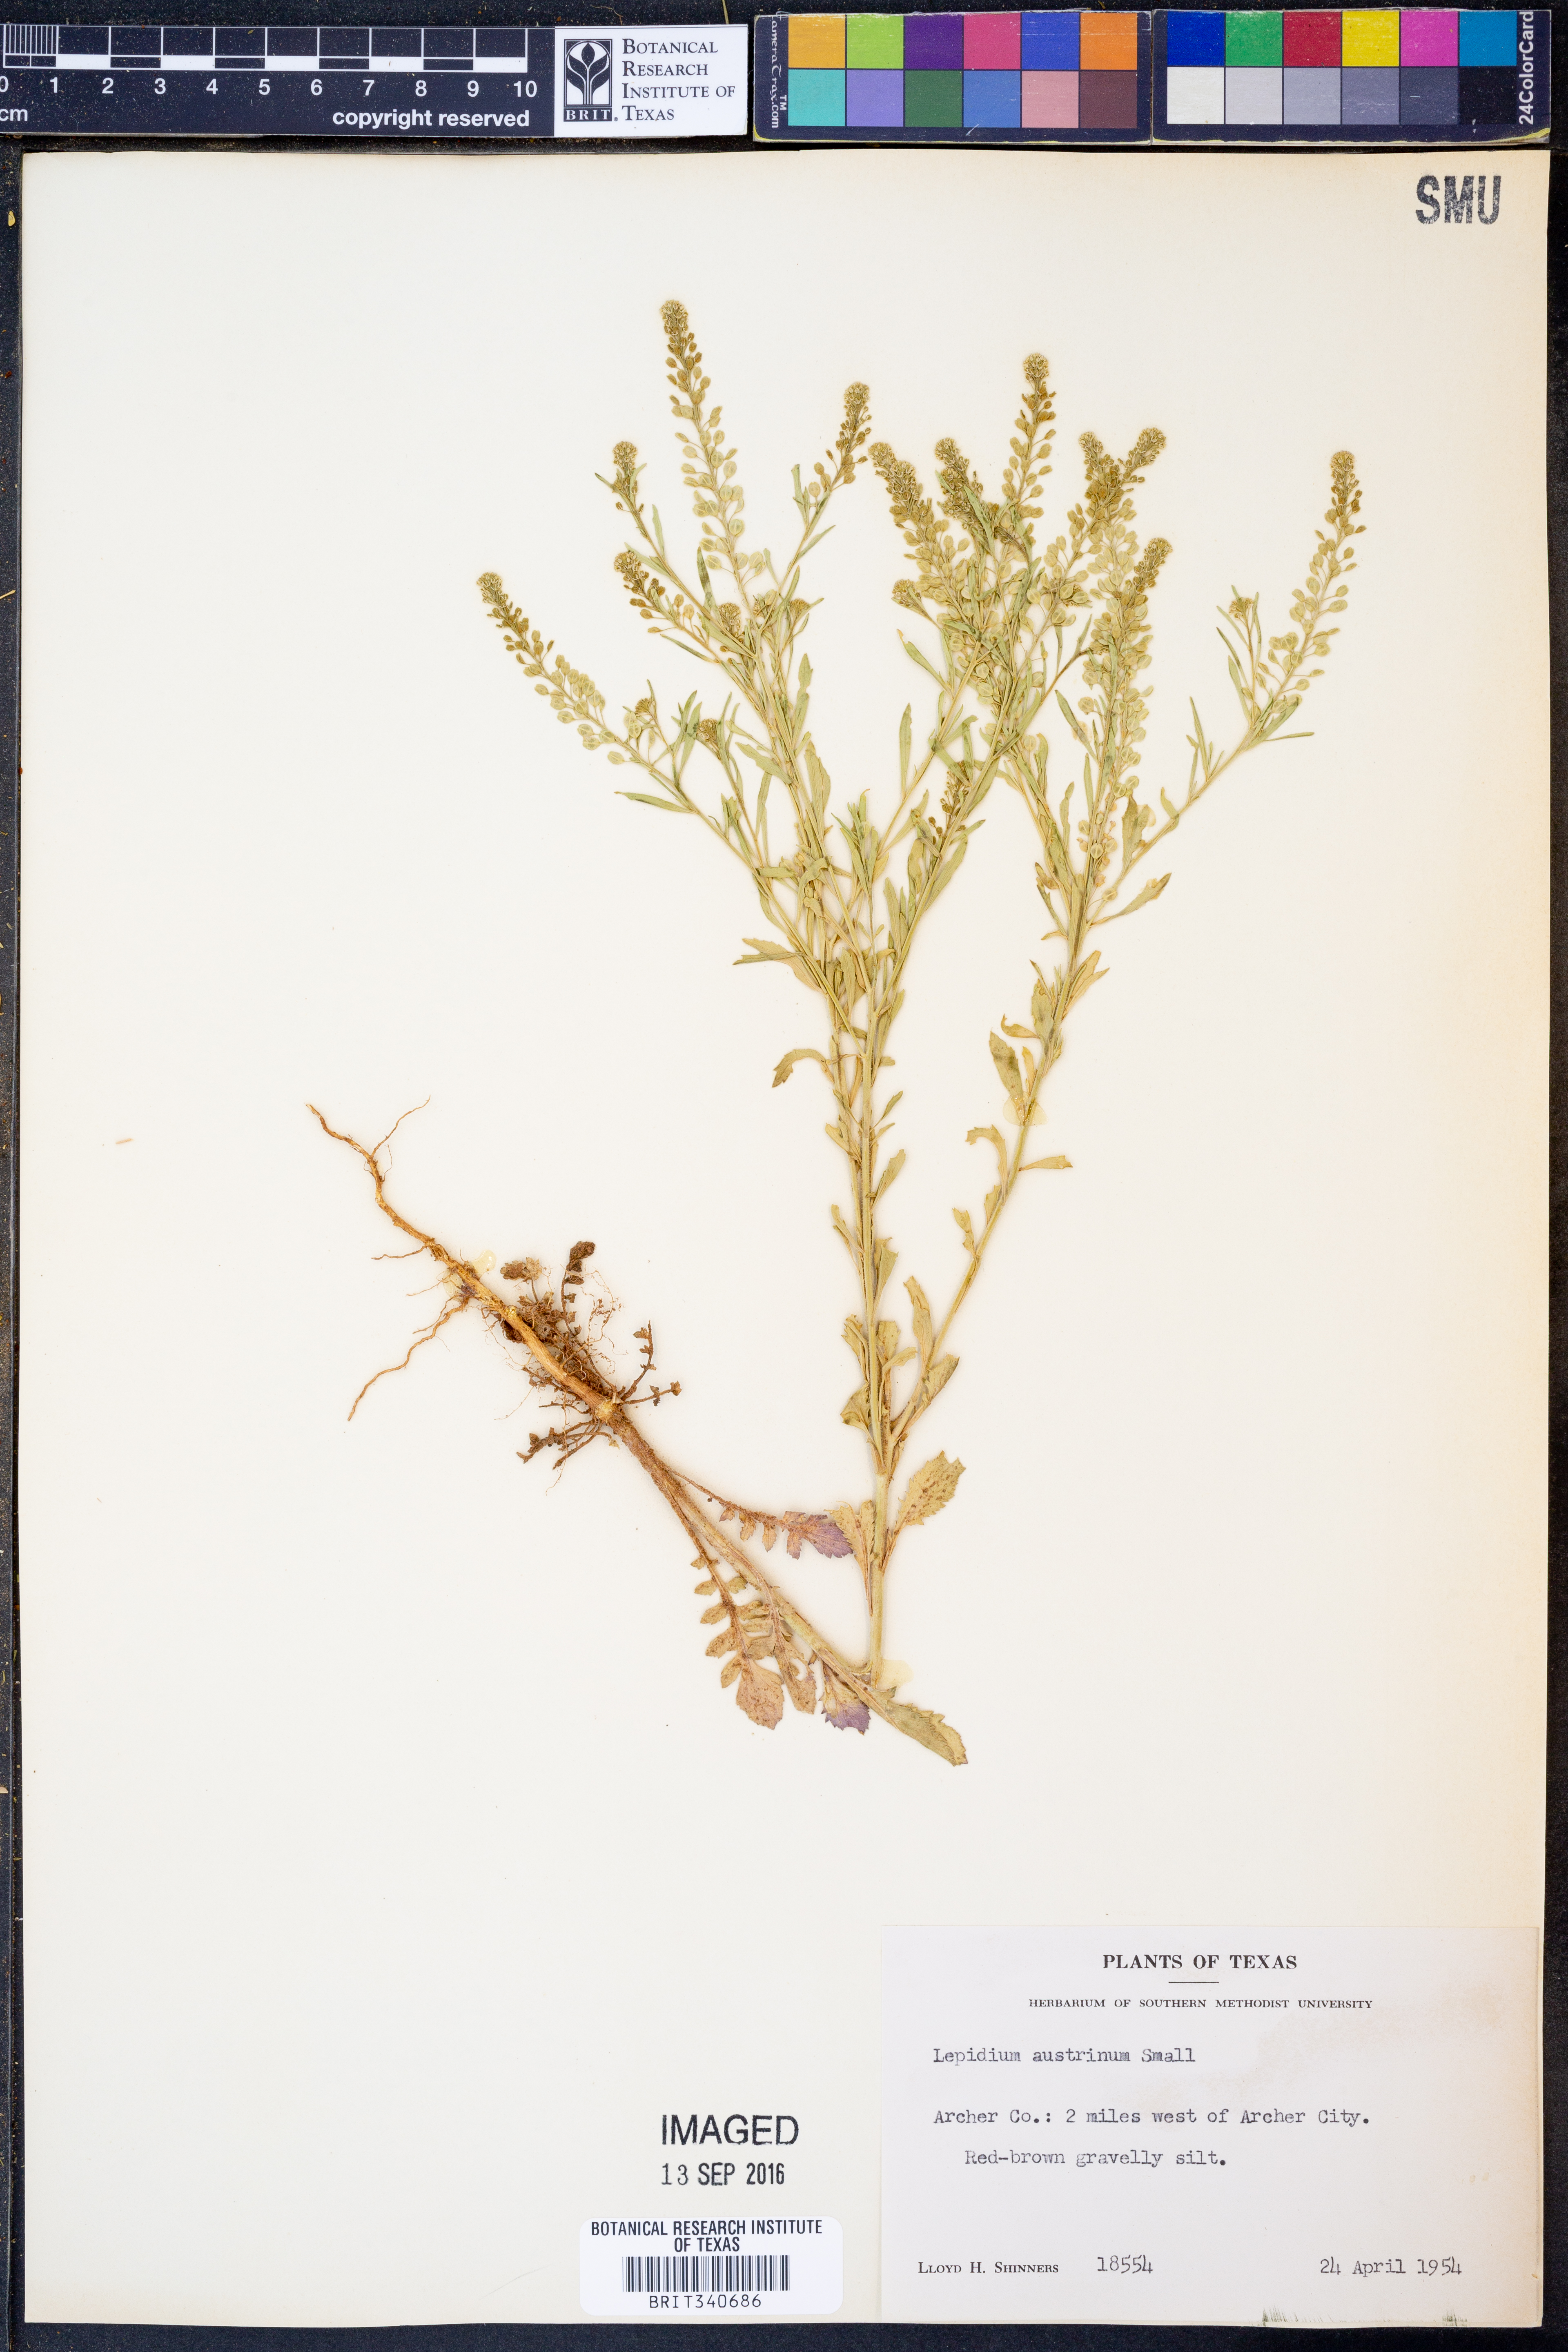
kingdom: Plantae
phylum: Tracheophyta
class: Magnoliopsida
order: Brassicales
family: Brassicaceae
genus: Lepidium
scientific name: Lepidium austrinum
